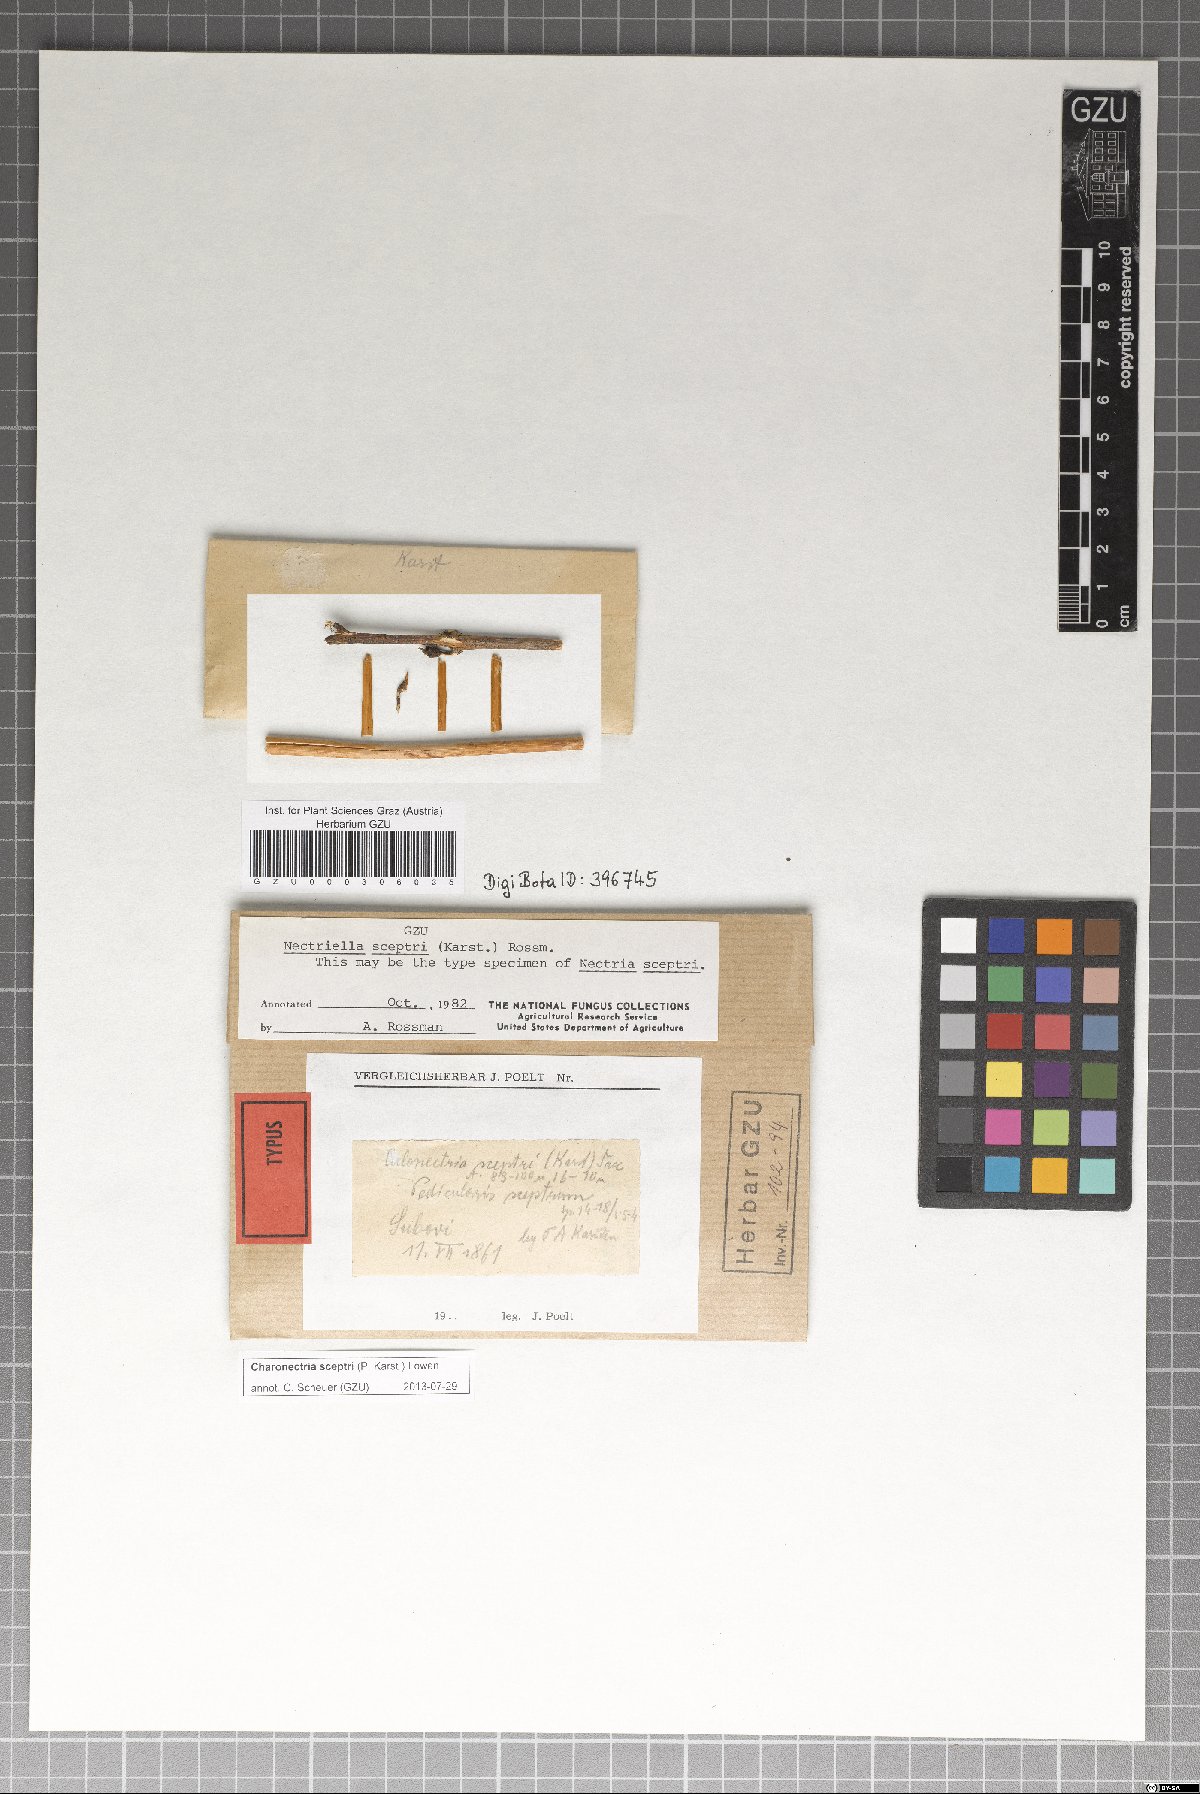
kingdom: Fungi
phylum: Ascomycota
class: Sordariomycetes
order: Hypocreales
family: Bionectriaceae
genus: Charonectria
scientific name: Charonectria sceptri
